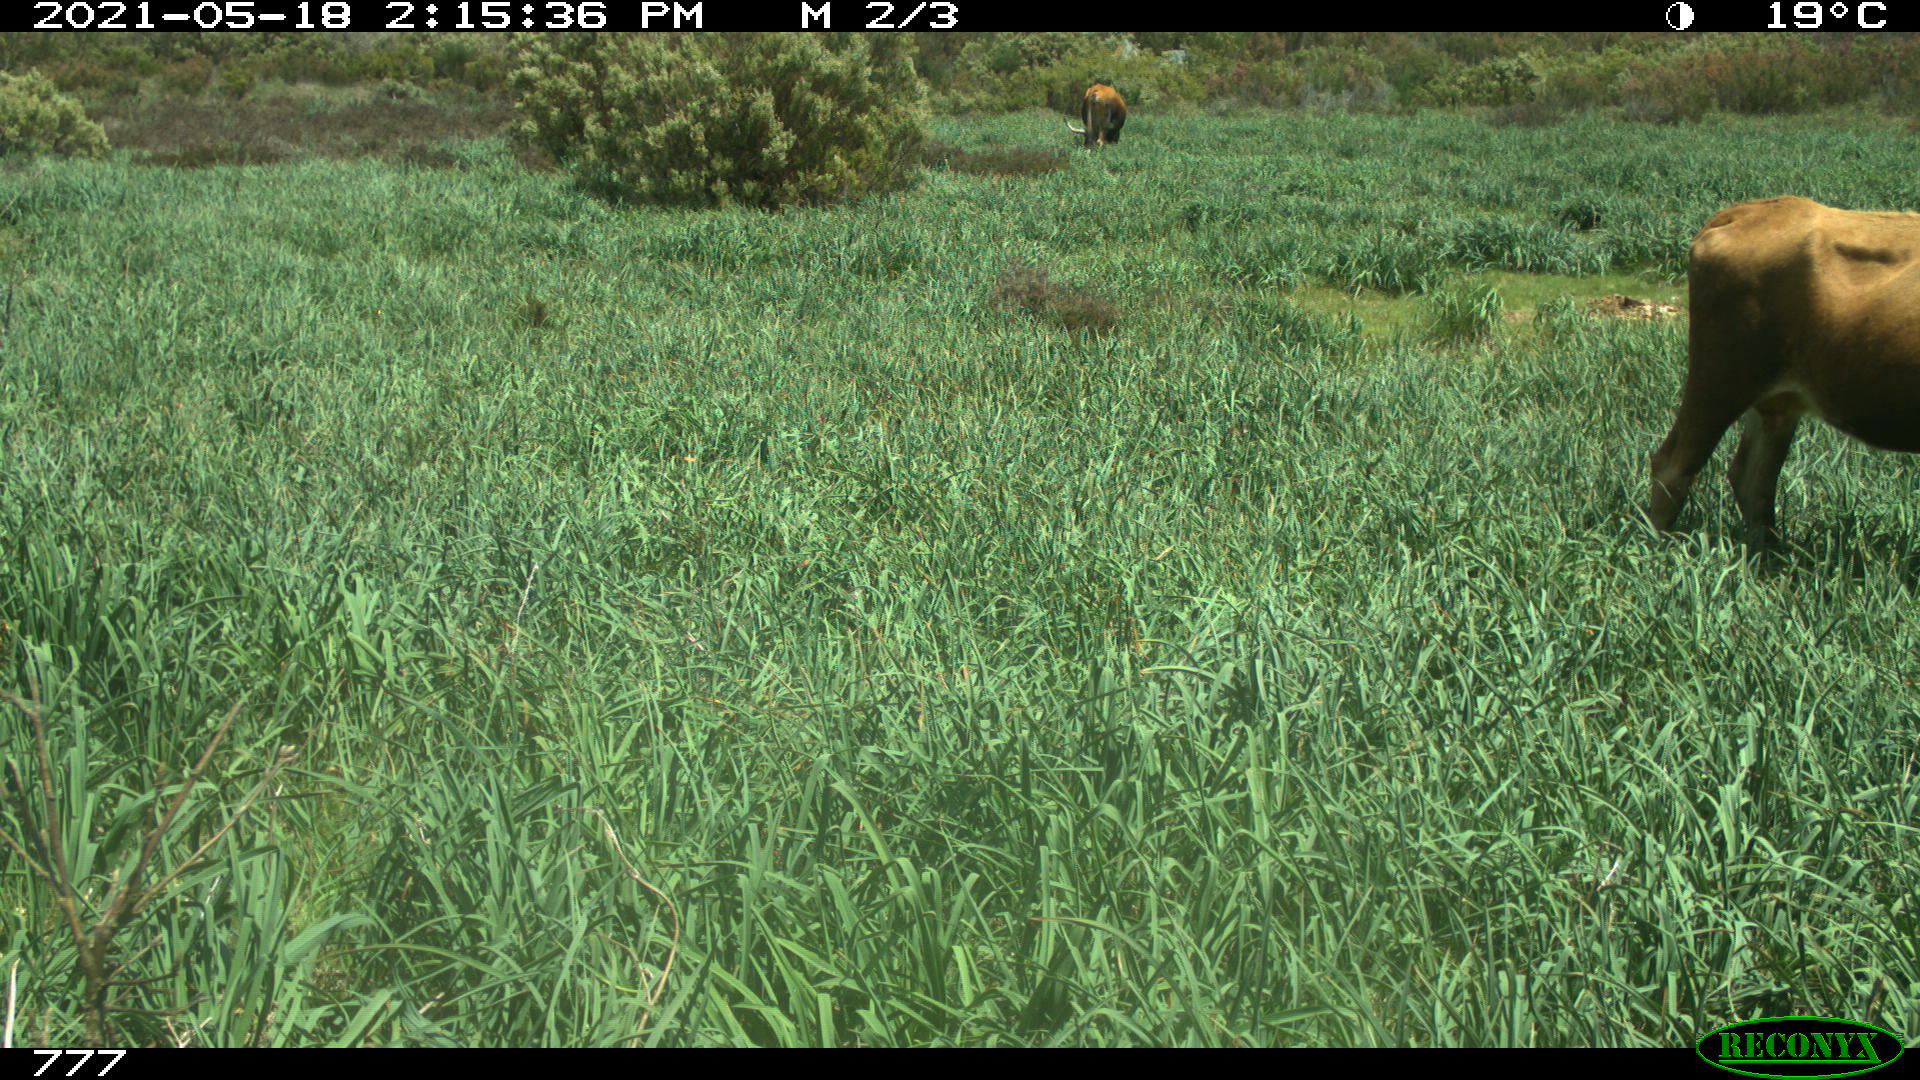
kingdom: Animalia
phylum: Chordata
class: Mammalia
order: Artiodactyla
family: Bovidae
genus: Bos
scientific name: Bos taurus
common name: Domesticated cattle
